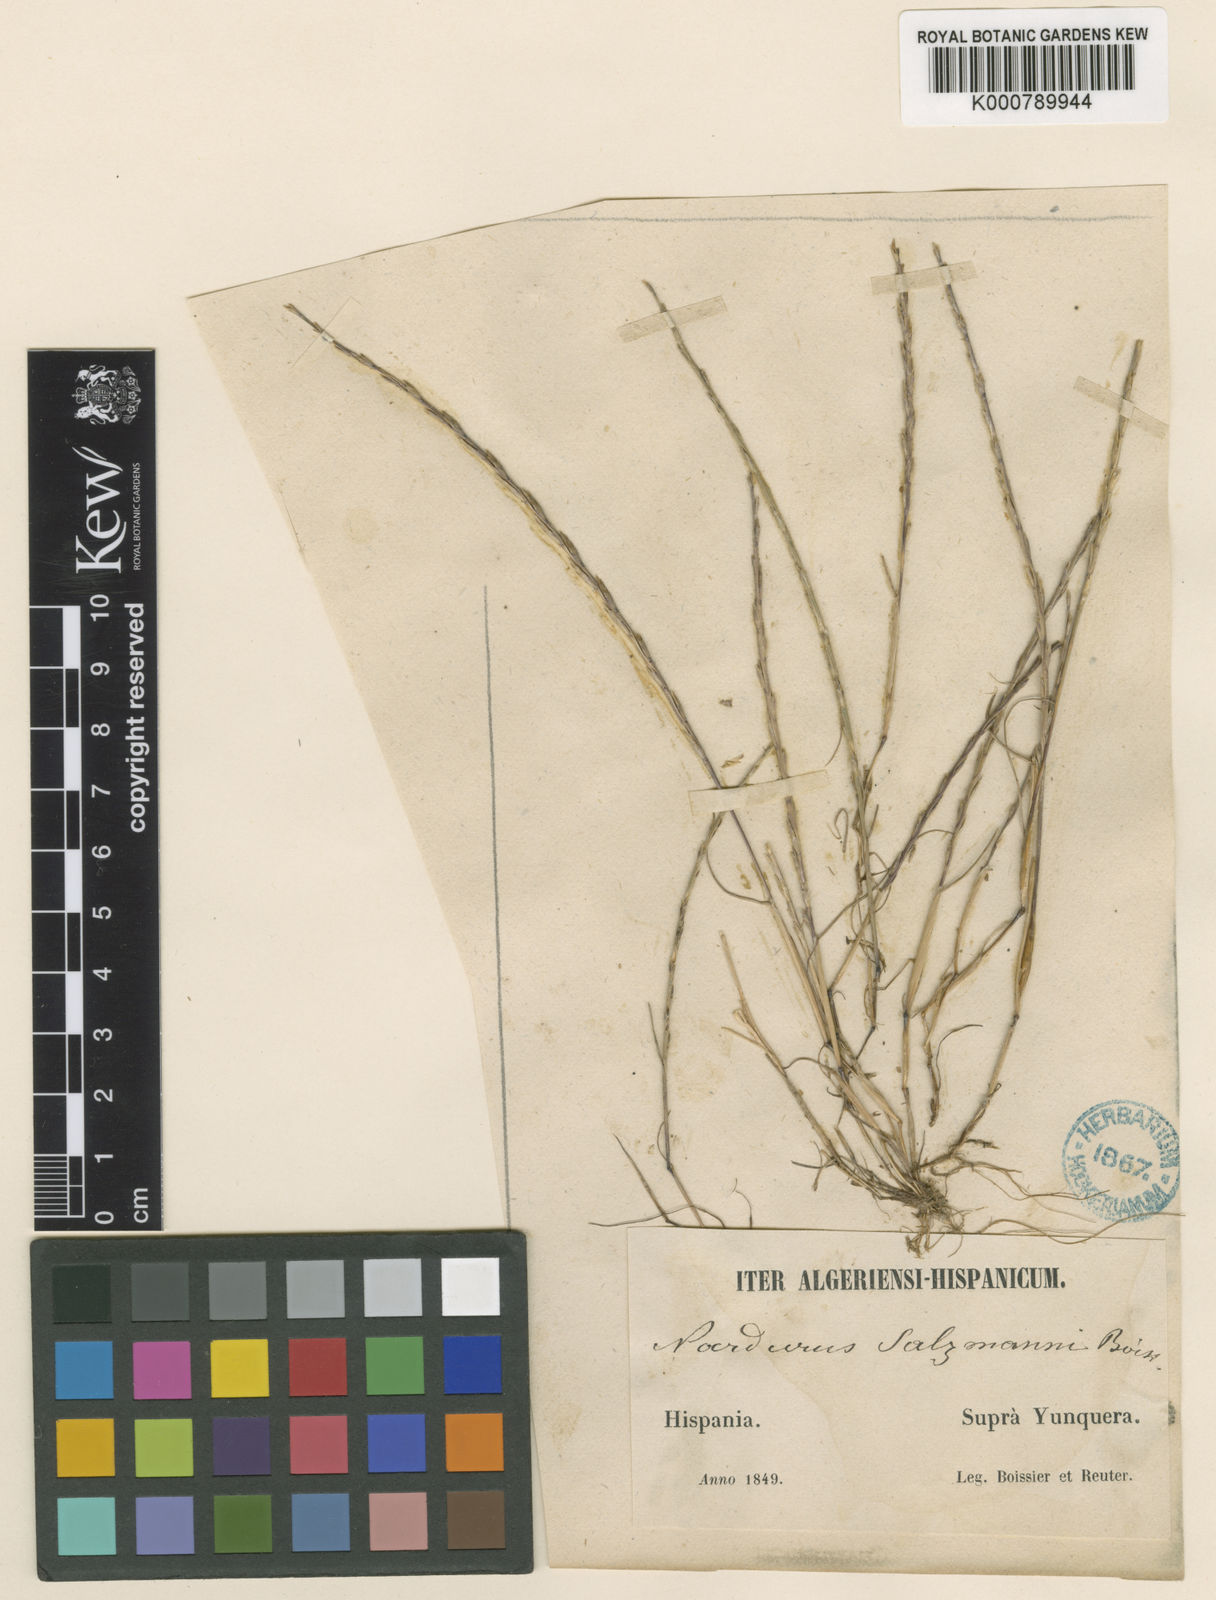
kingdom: Plantae
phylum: Tracheophyta
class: Liliopsida
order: Poales
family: Poaceae
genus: Festuca
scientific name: Festuca salzmannii
